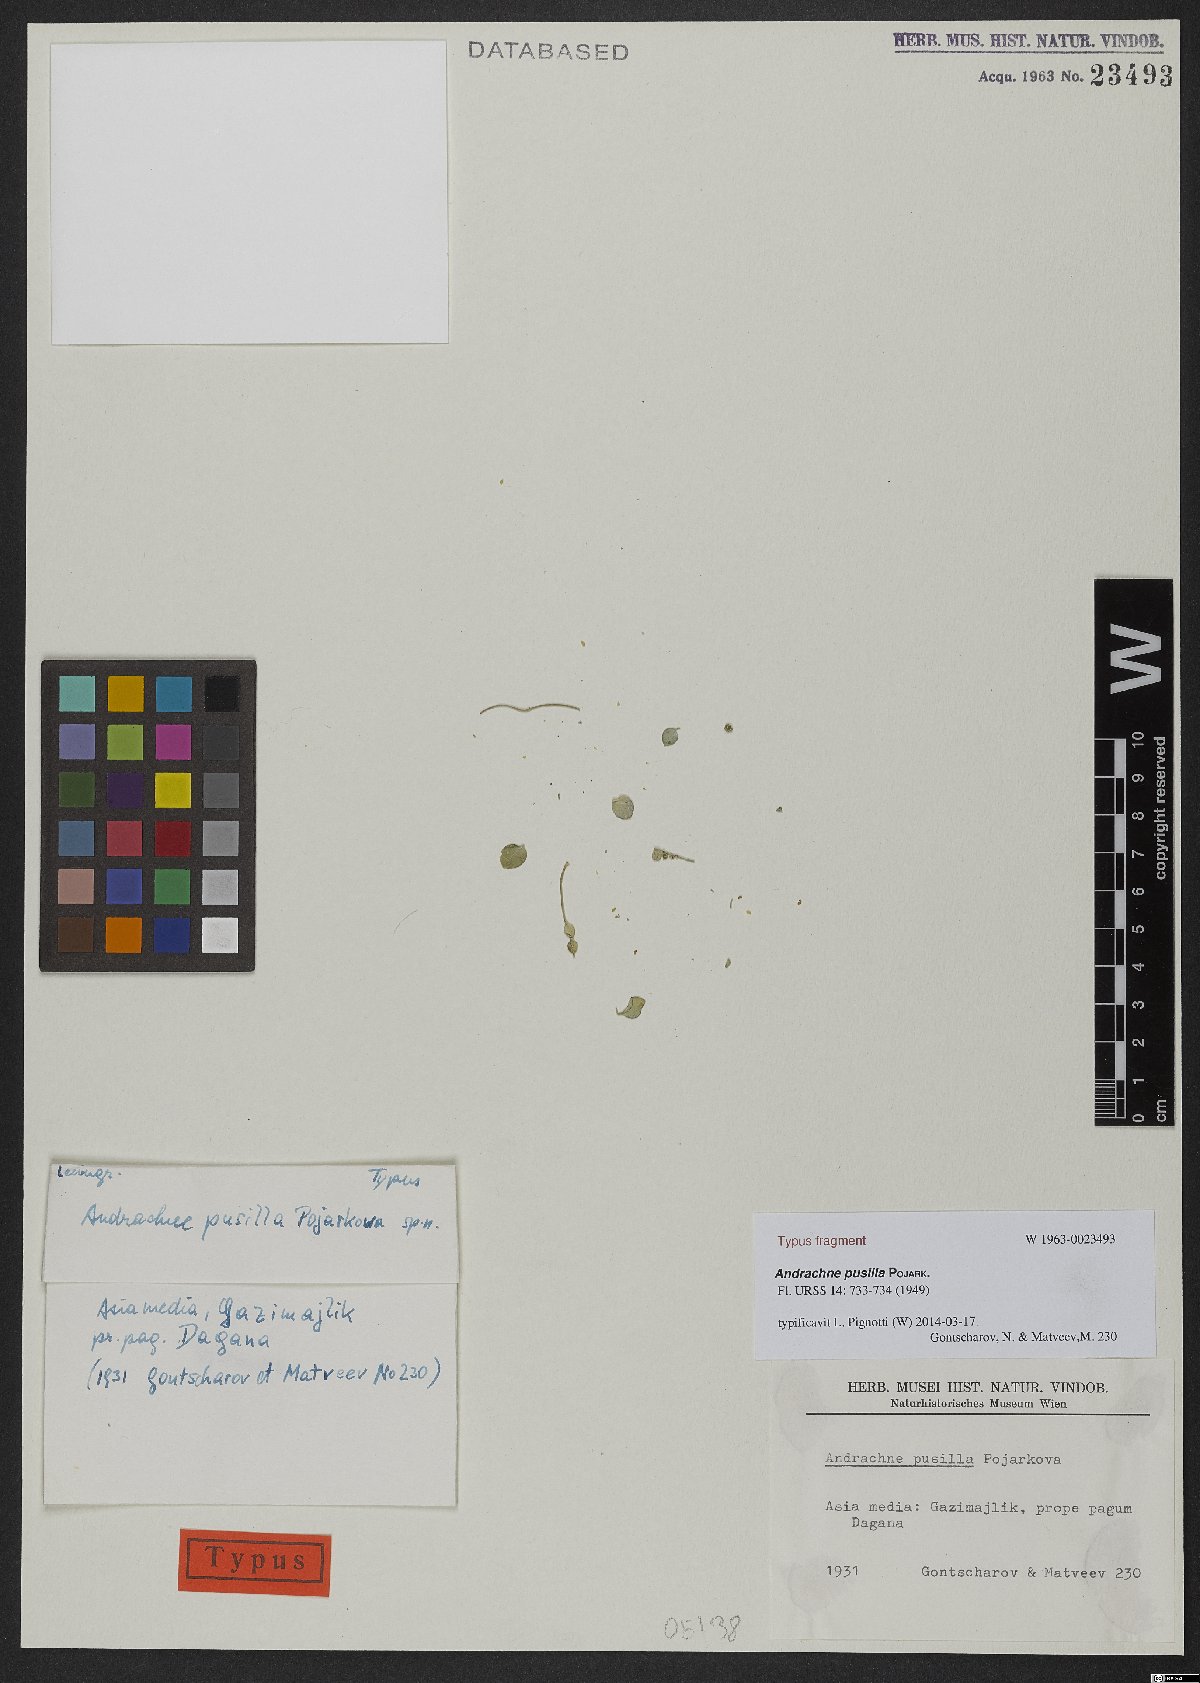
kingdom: Plantae
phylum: Tracheophyta
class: Magnoliopsida
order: Malpighiales
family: Phyllanthaceae
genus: Andrachne
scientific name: Andrachne pusilla
